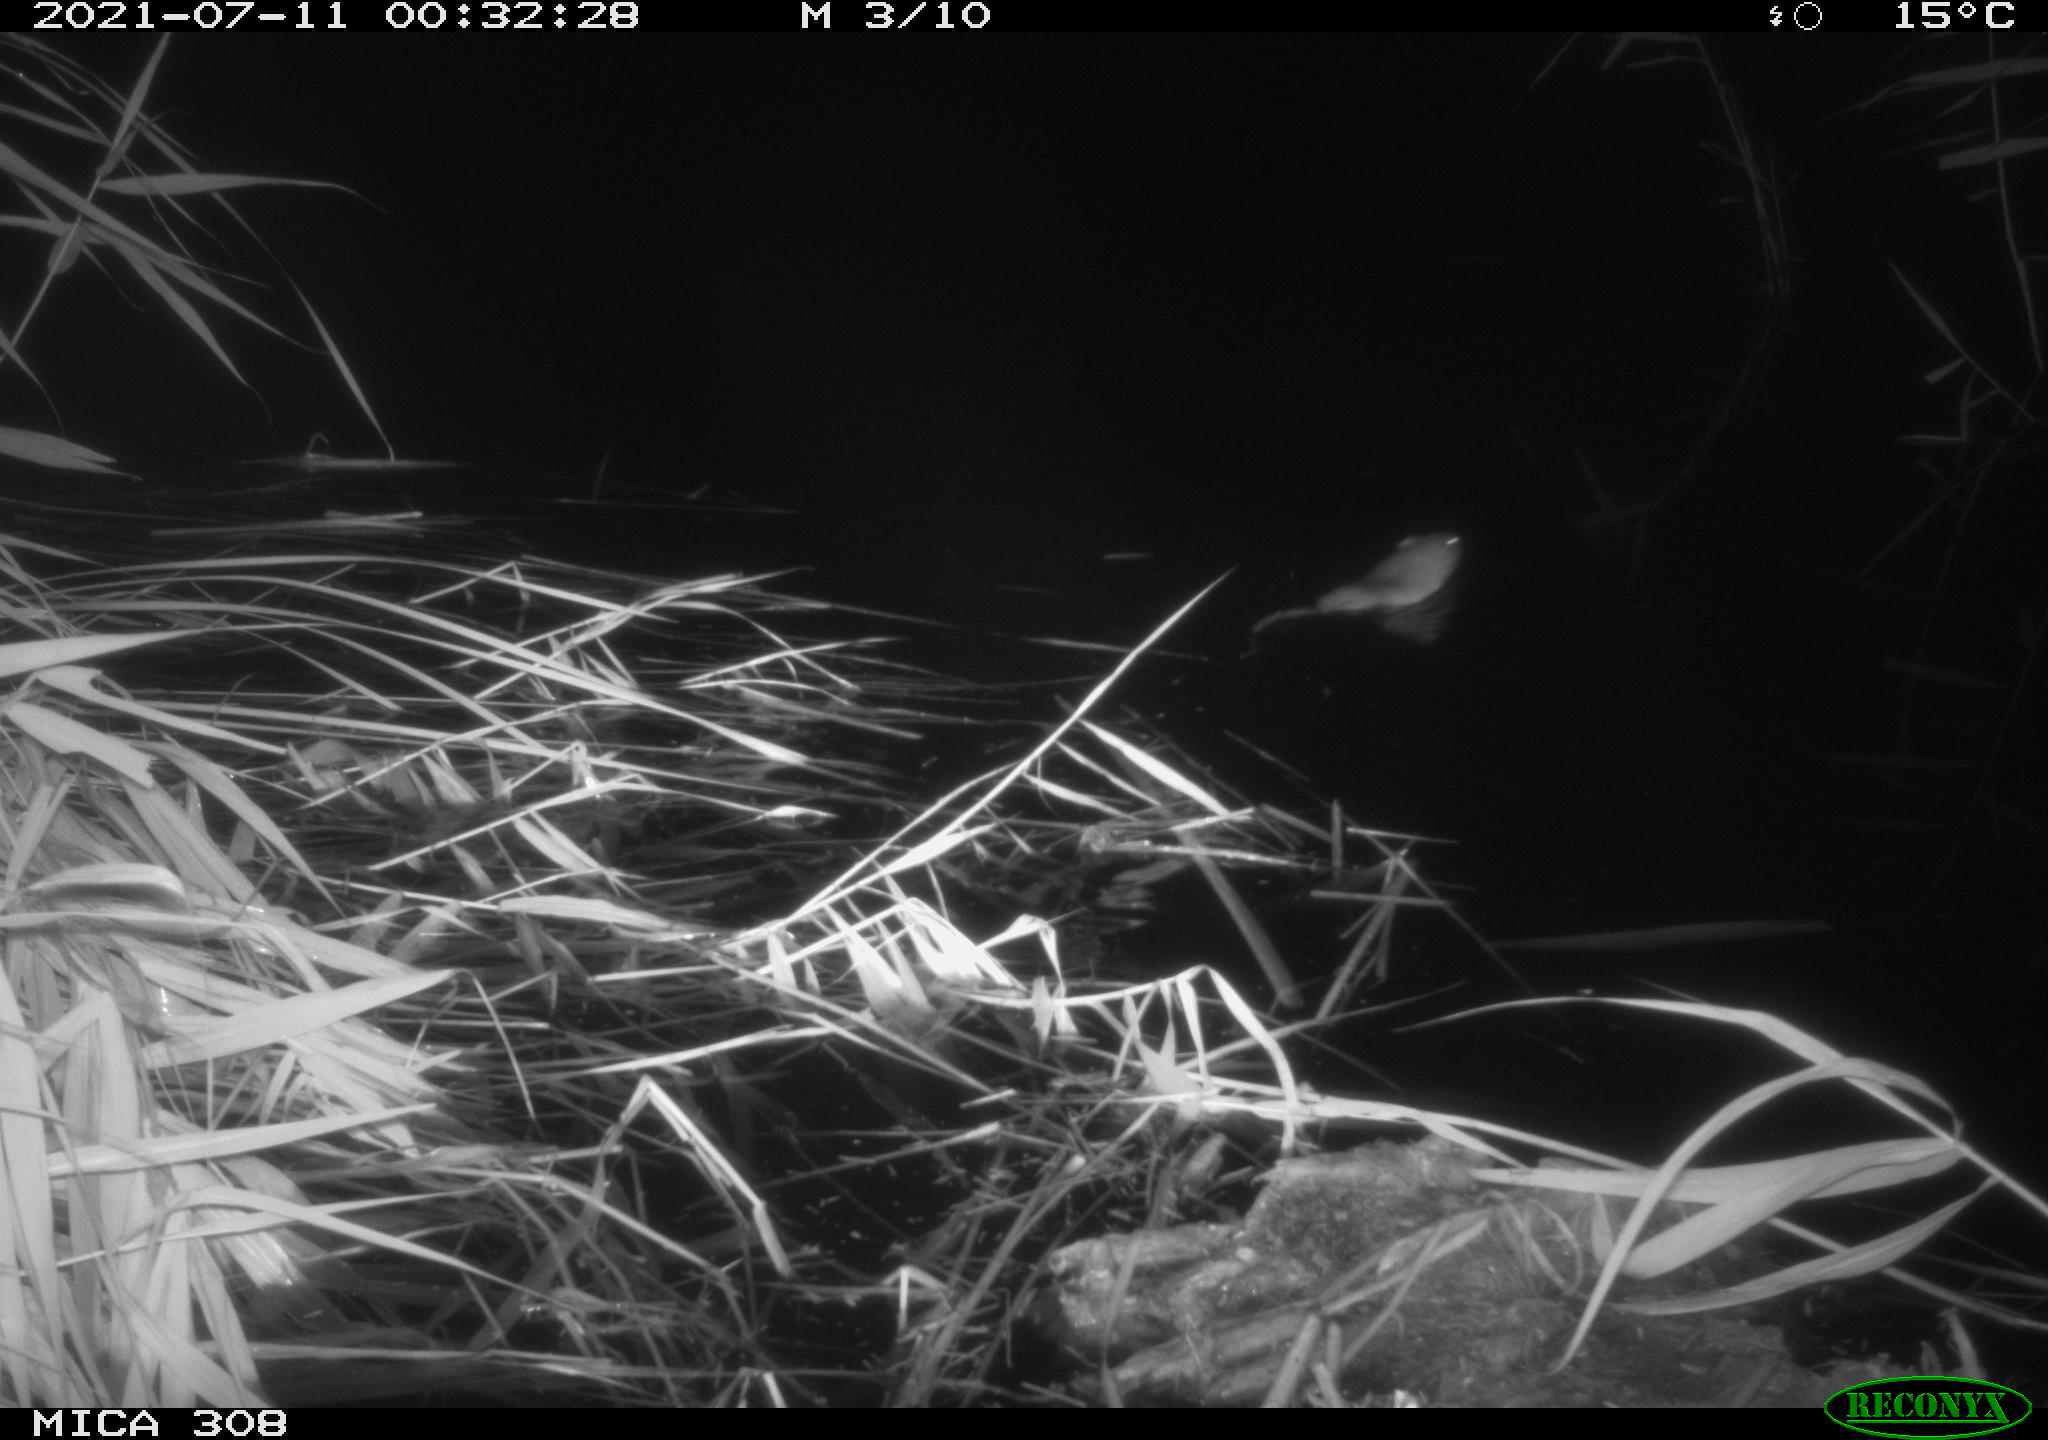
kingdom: Animalia
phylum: Chordata
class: Mammalia
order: Rodentia
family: Muridae
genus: Rattus
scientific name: Rattus norvegicus
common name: Brown rat
